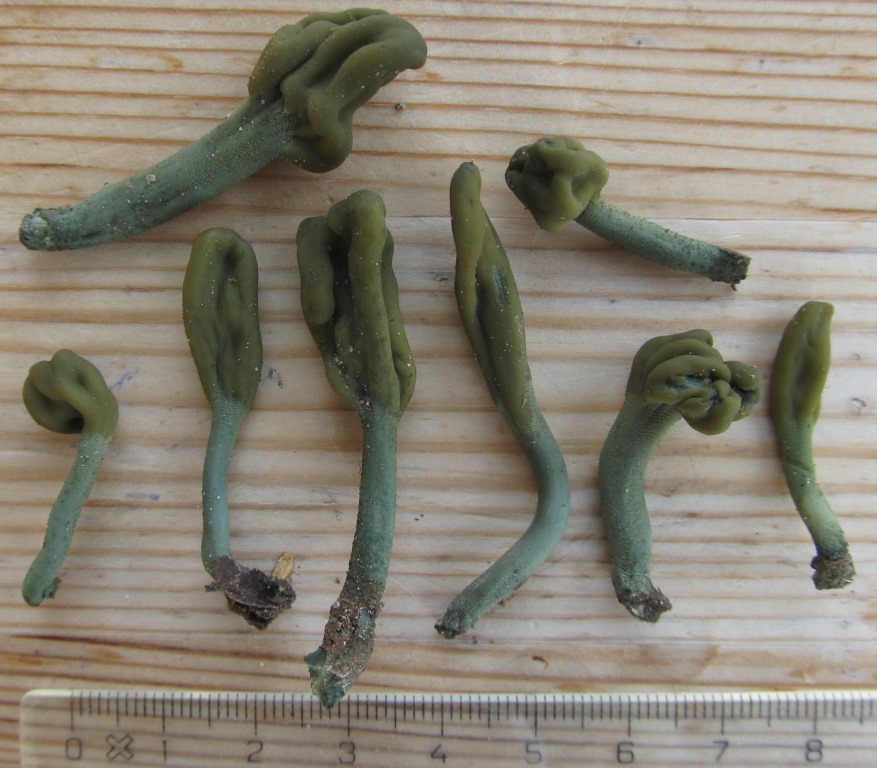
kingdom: Fungi
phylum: Ascomycota
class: Leotiomycetes
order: Leotiales
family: Leotiaceae
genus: Microglossum
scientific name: Microglossum griseoviride
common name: grågrøn farvetunge
